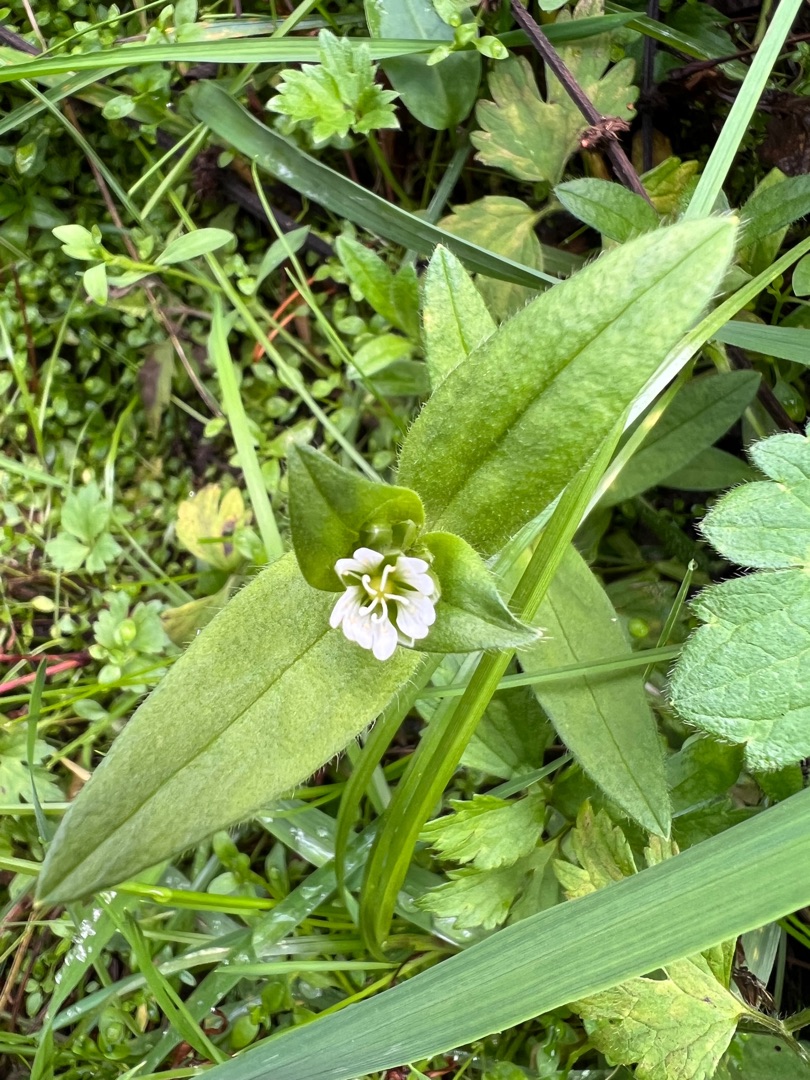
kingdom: Plantae
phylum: Tracheophyta
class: Magnoliopsida
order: Caryophyllales
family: Caryophyllaceae
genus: Cerastium
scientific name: Cerastium fontanum
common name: Almindelig hønsetarm
